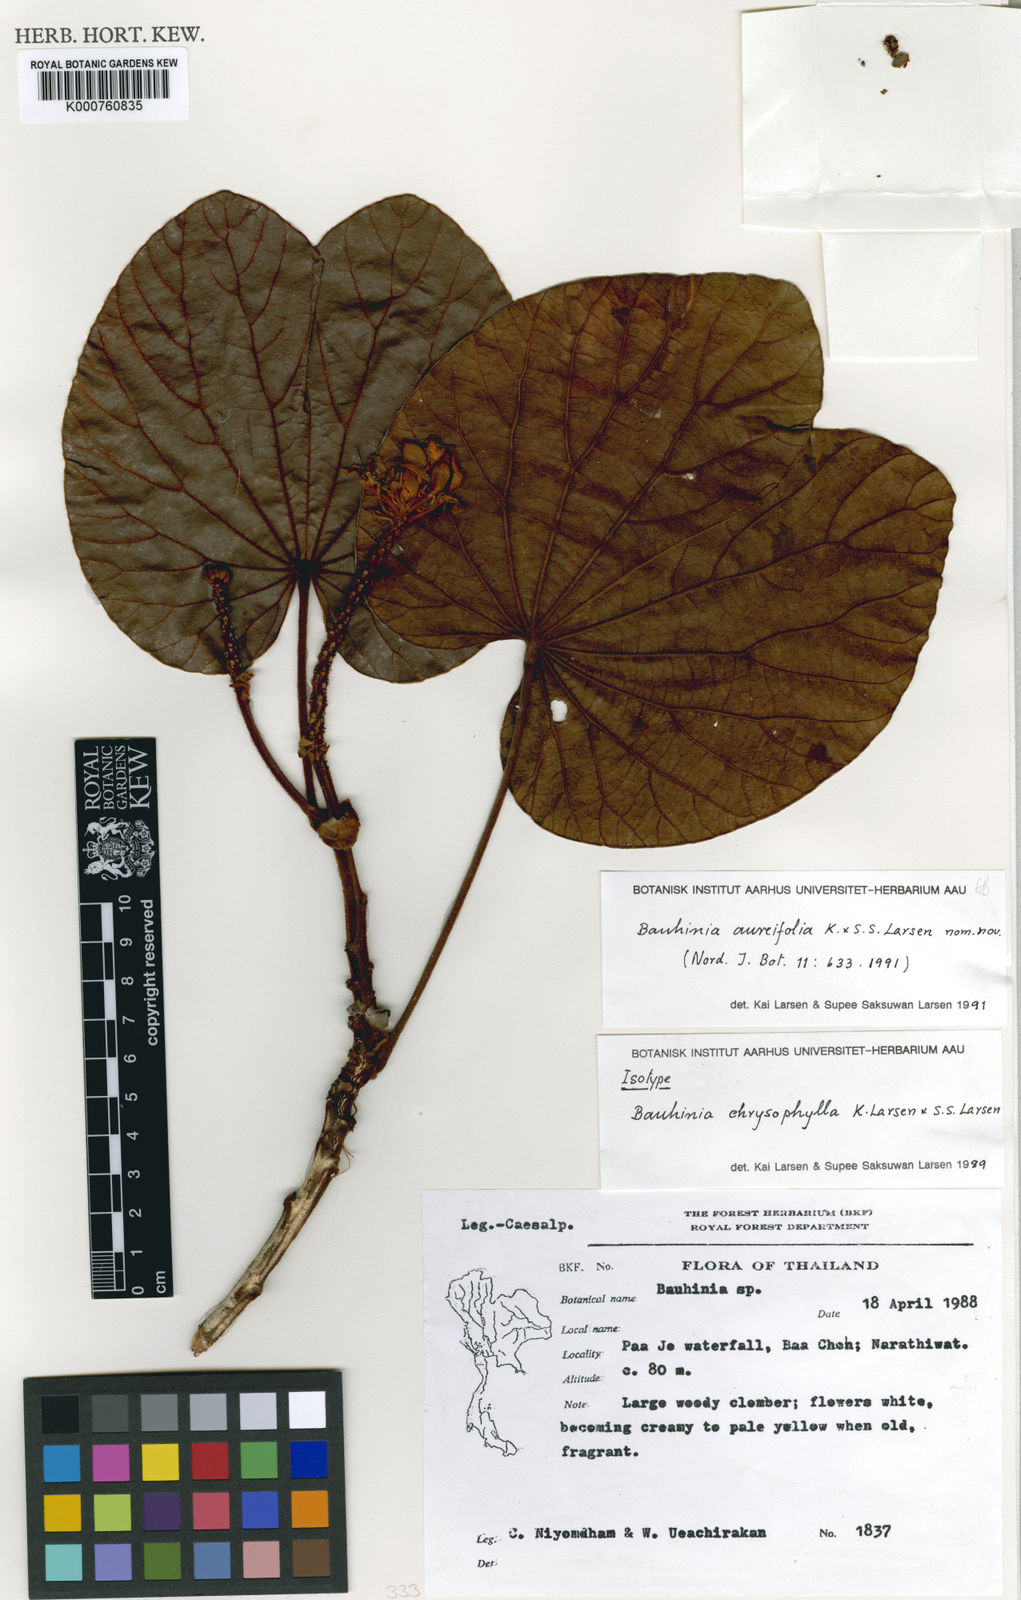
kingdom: Plantae
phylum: Tracheophyta
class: Magnoliopsida
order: Fabales
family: Fabaceae
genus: Phanera
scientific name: Phanera aureifolia
